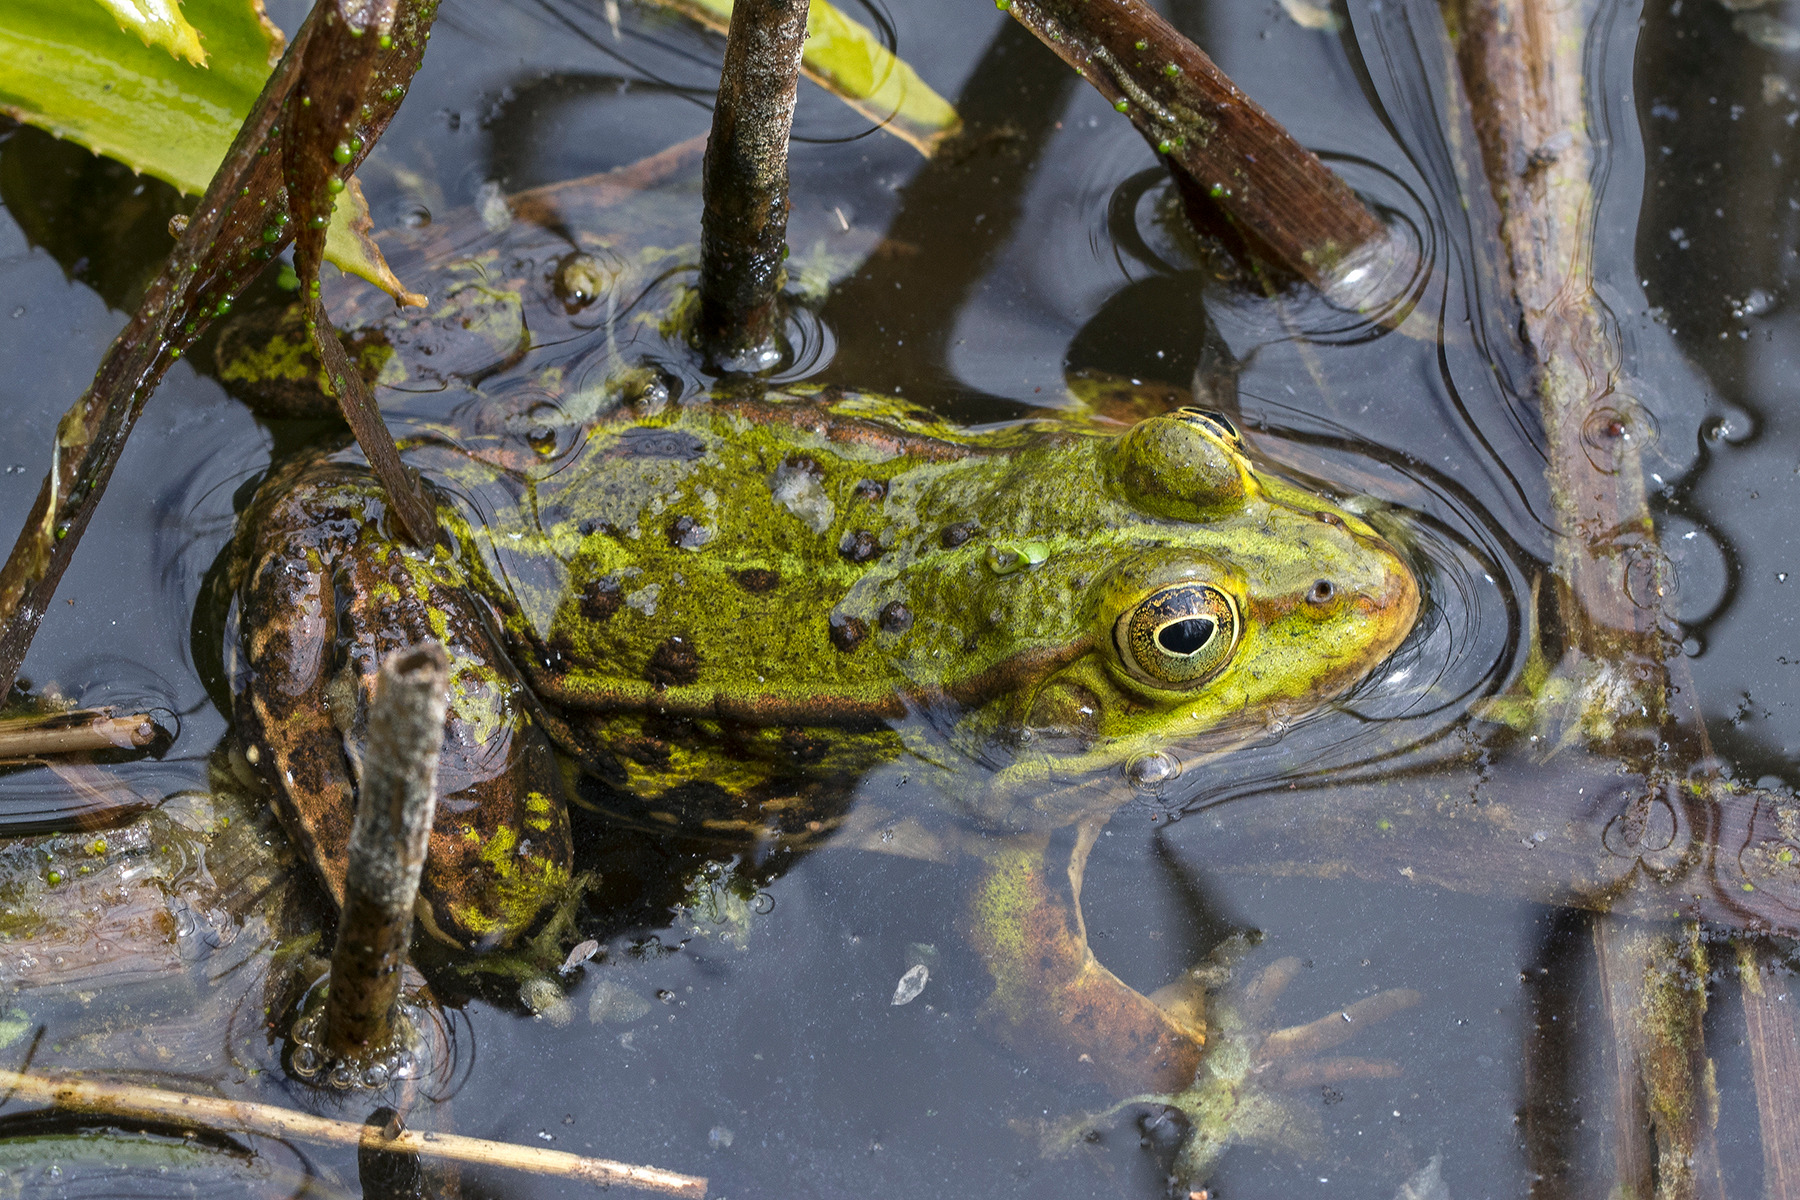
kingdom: Animalia
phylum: Chordata
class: Amphibia
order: Anura
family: Ranidae
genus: Pelophylax
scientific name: Pelophylax lessonae
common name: Grøn frø
